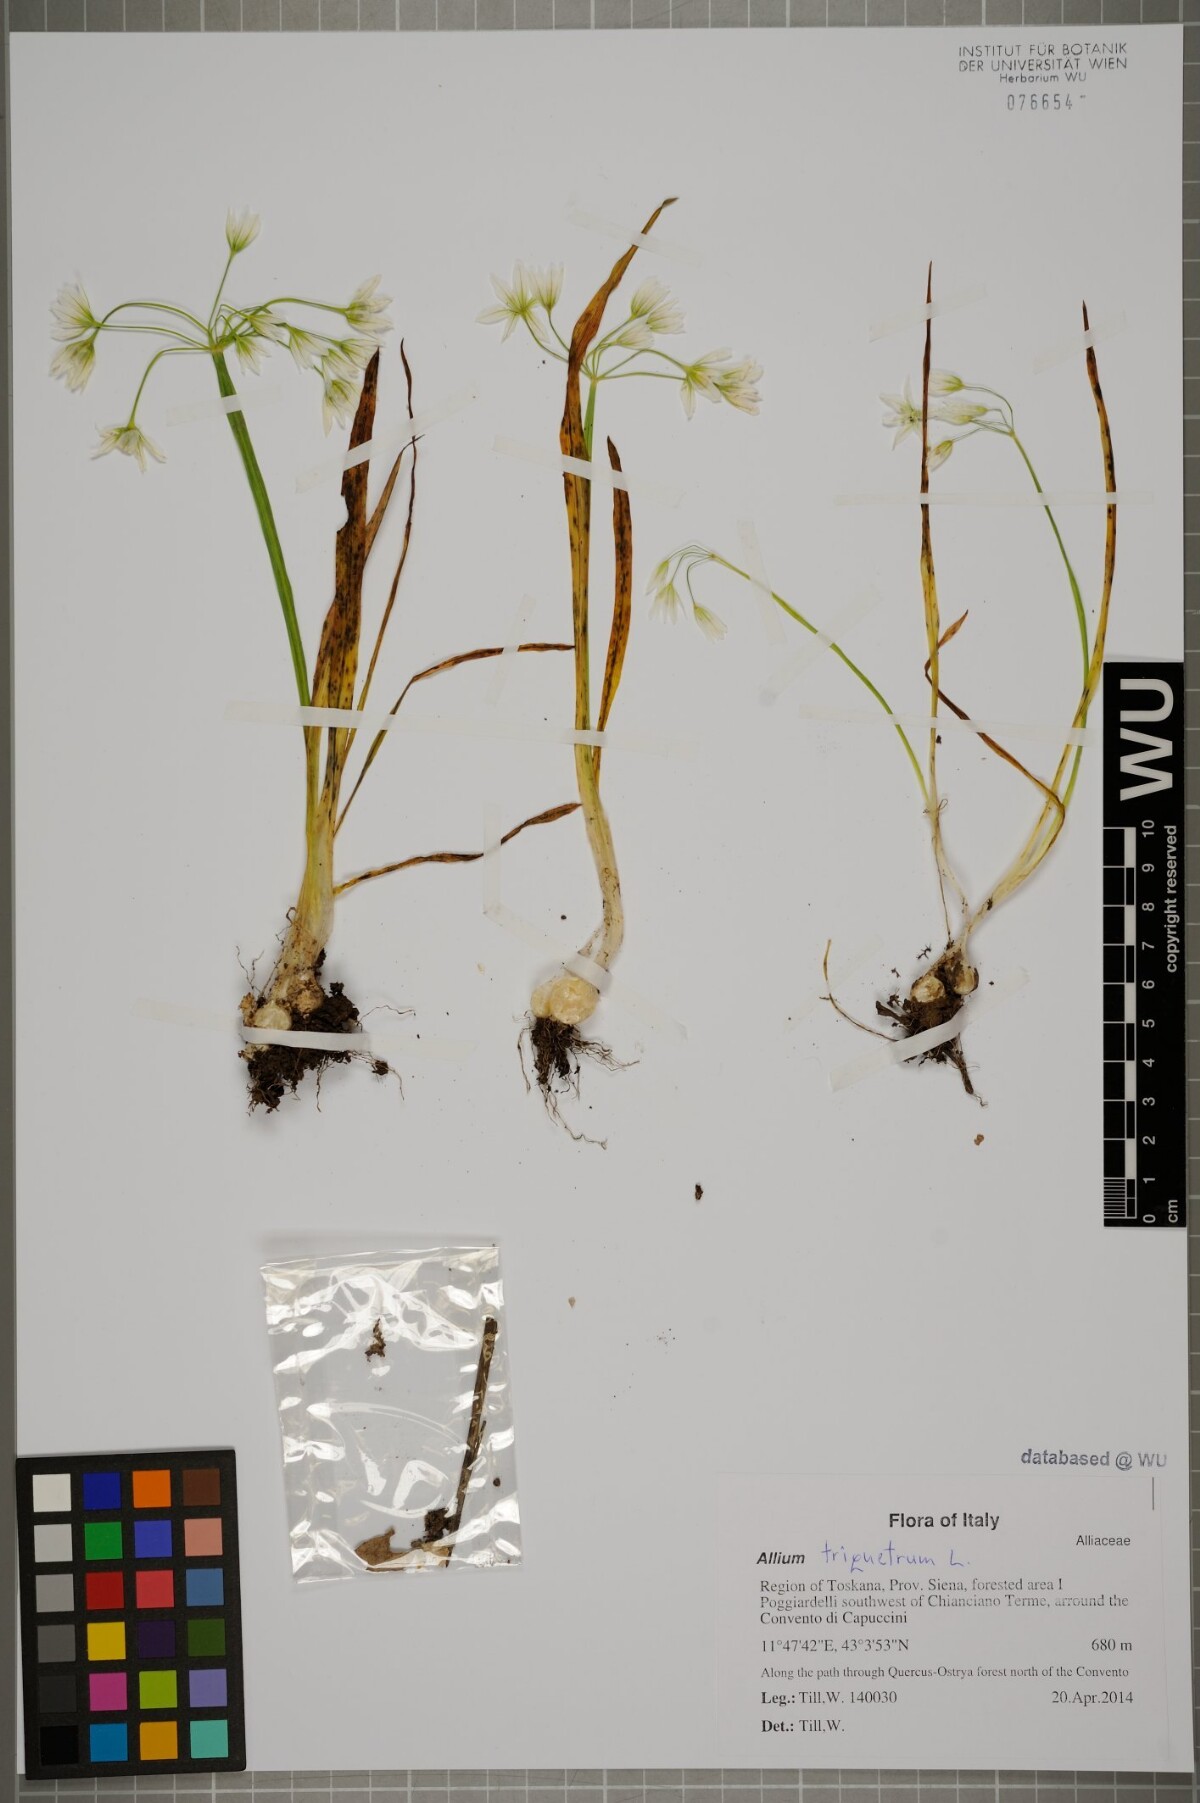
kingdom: Plantae
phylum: Tracheophyta
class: Liliopsida
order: Asparagales
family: Amaryllidaceae
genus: Allium
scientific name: Allium triquetrum
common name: Three-cornered garlic
